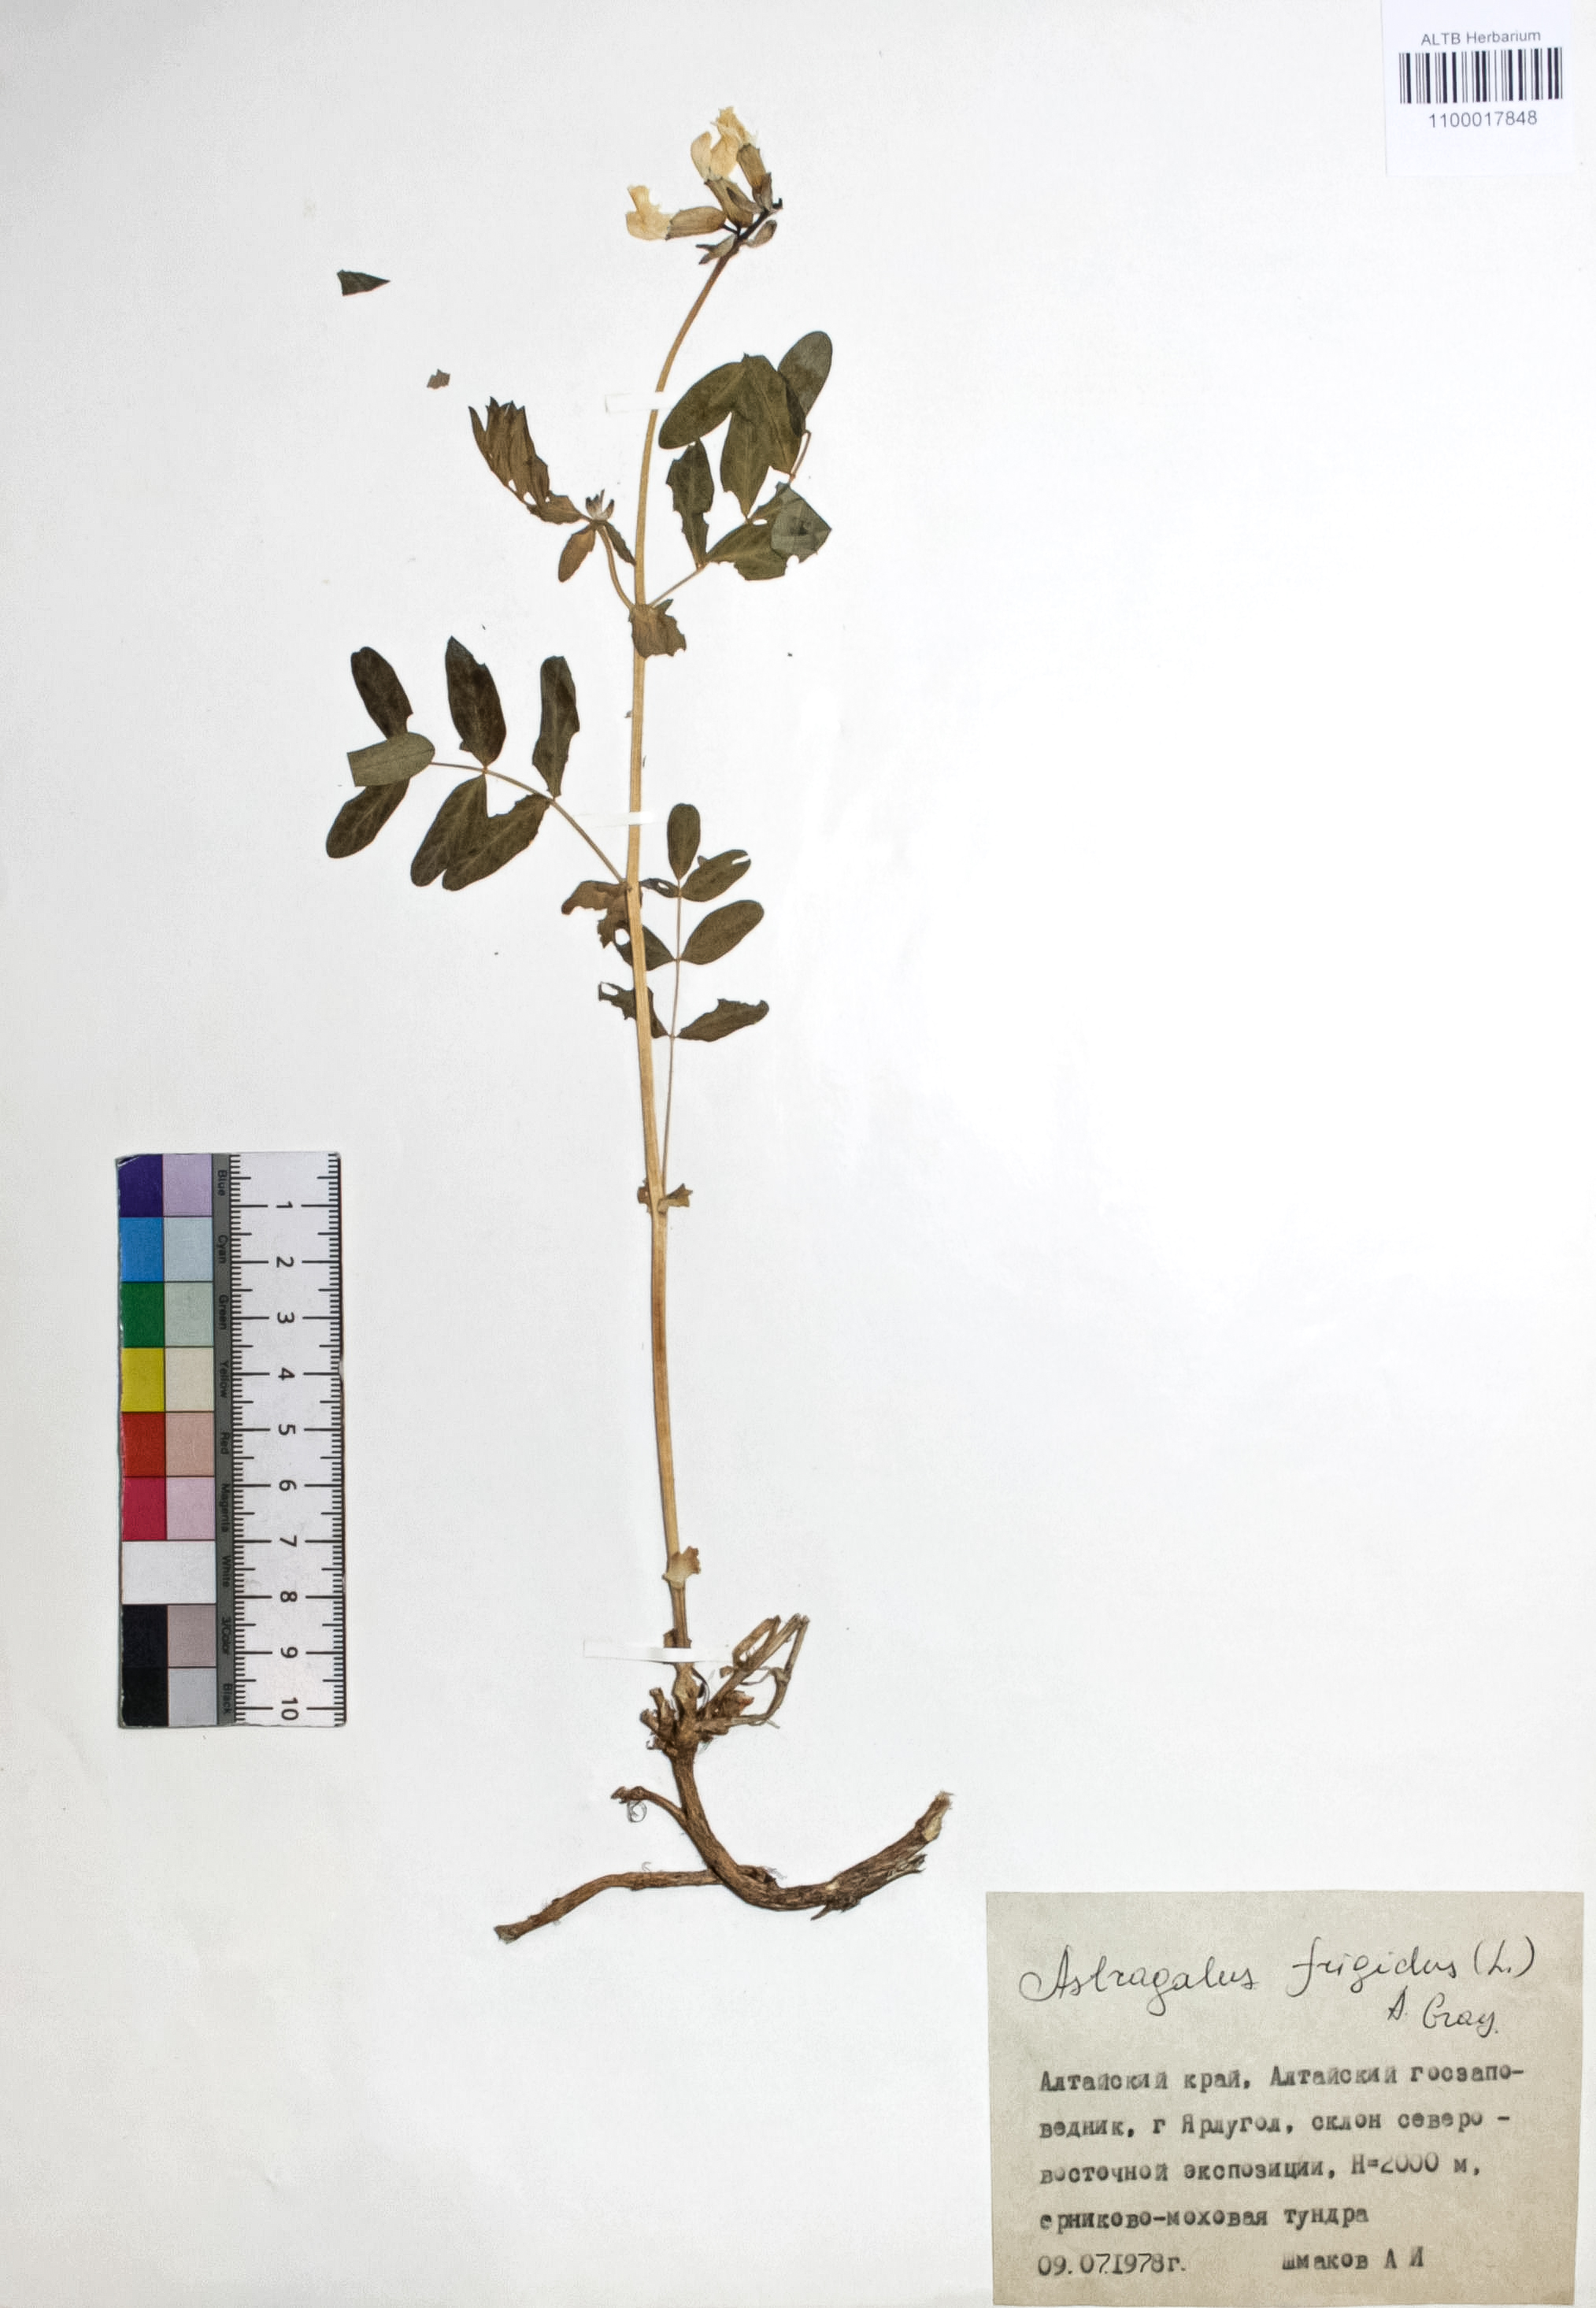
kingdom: Plantae
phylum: Tracheophyta
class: Magnoliopsida
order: Fabales
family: Fabaceae
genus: Astragalus
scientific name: Astragalus frigidus
